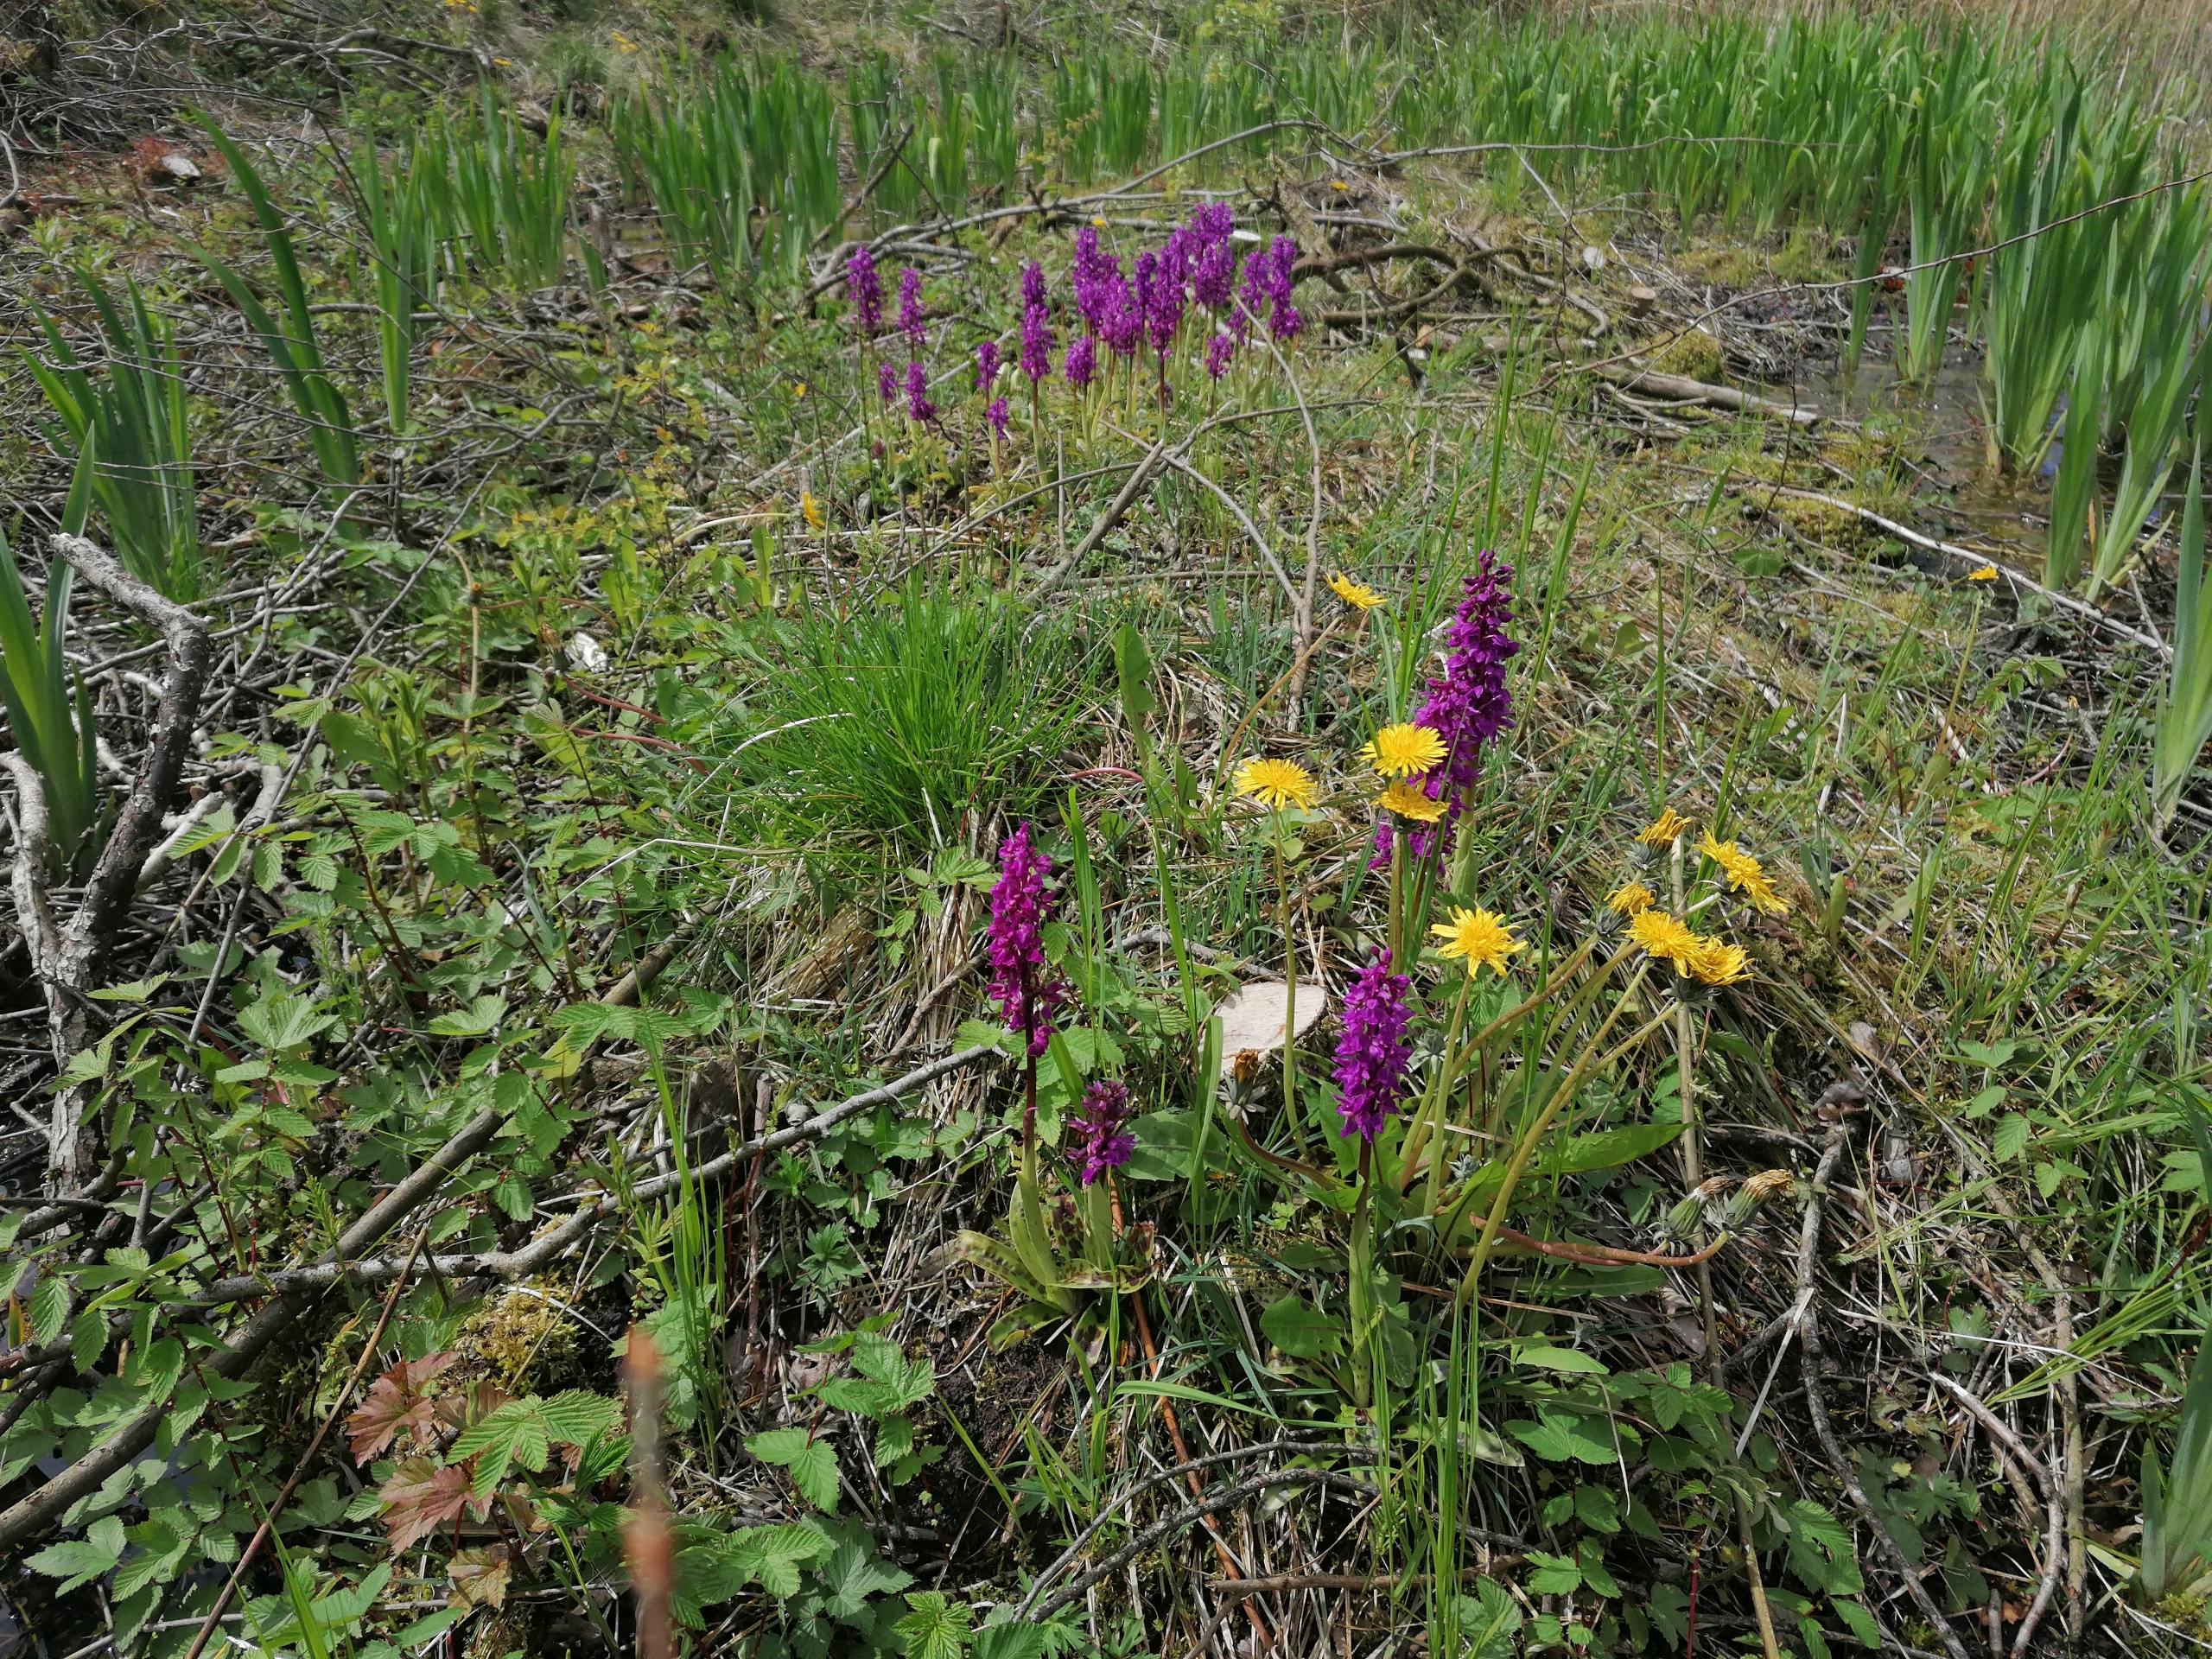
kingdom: Plantae
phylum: Tracheophyta
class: Liliopsida
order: Asparagales
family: Orchidaceae
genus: Orchis
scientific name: Orchis mascula
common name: Tyndakset gøgeurt
